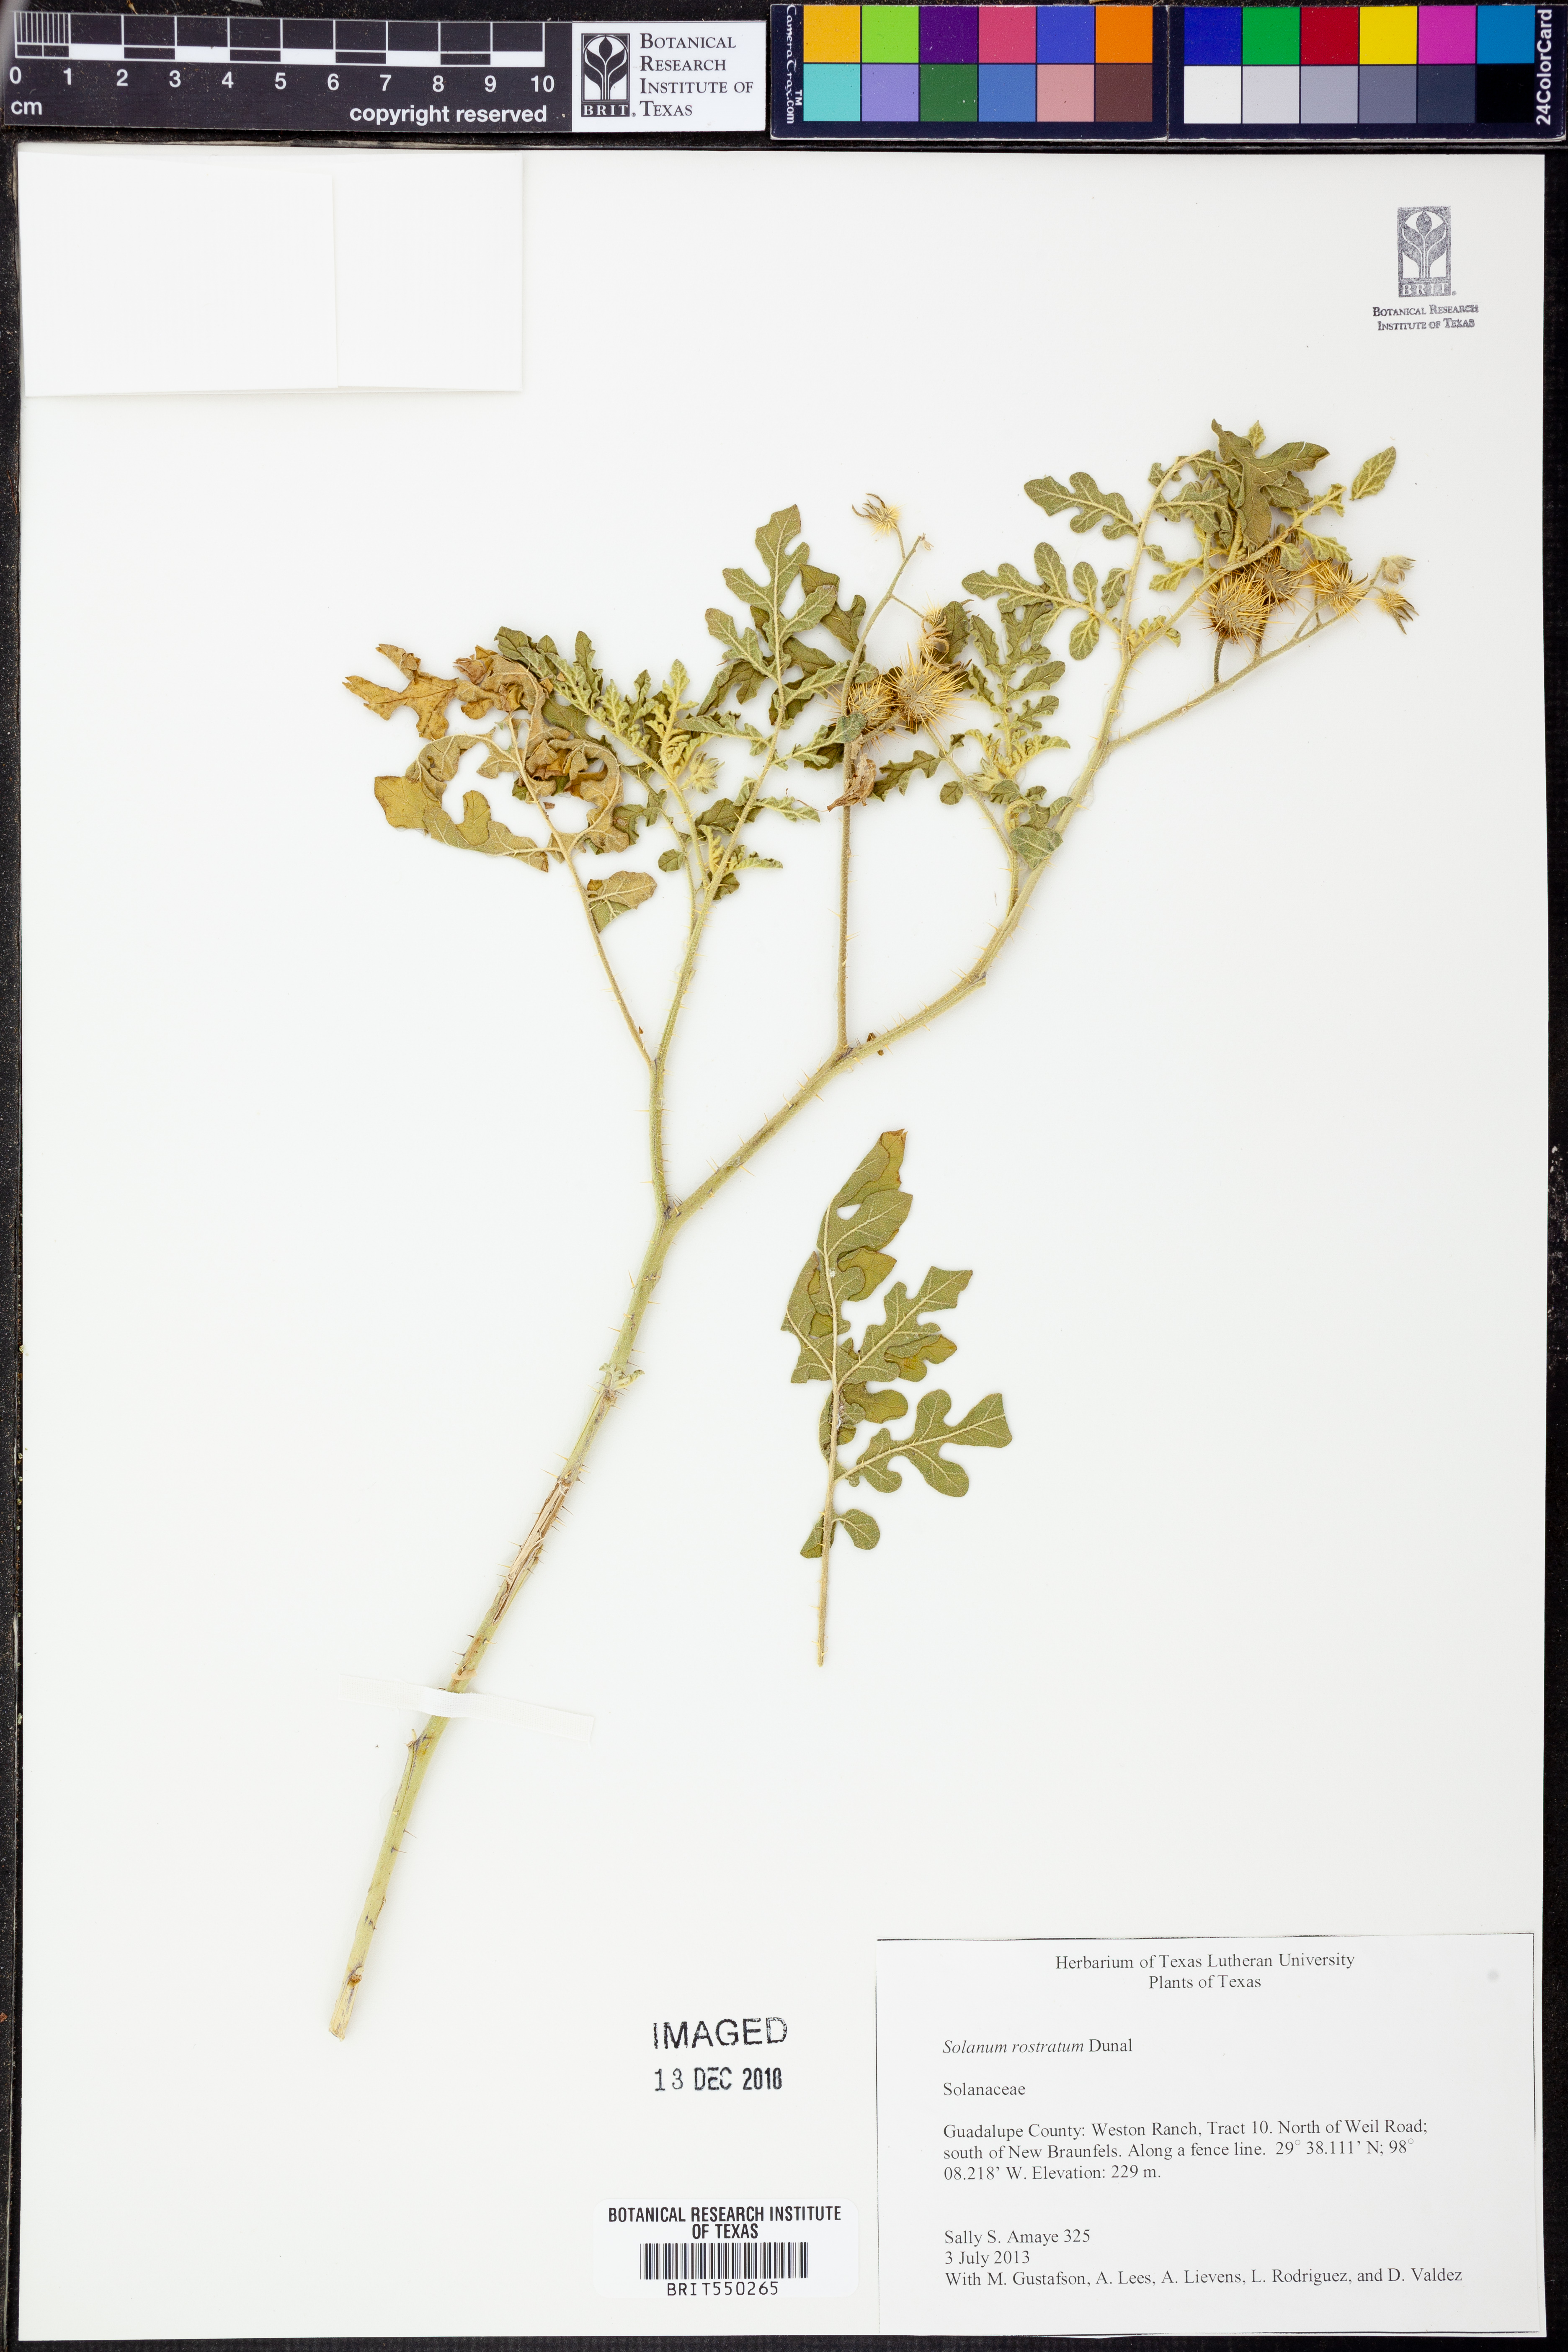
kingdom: Plantae
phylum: Tracheophyta
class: Magnoliopsida
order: Solanales
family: Solanaceae
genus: Solanum
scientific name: Solanum angustifolium
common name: Buffalobur nightshade
